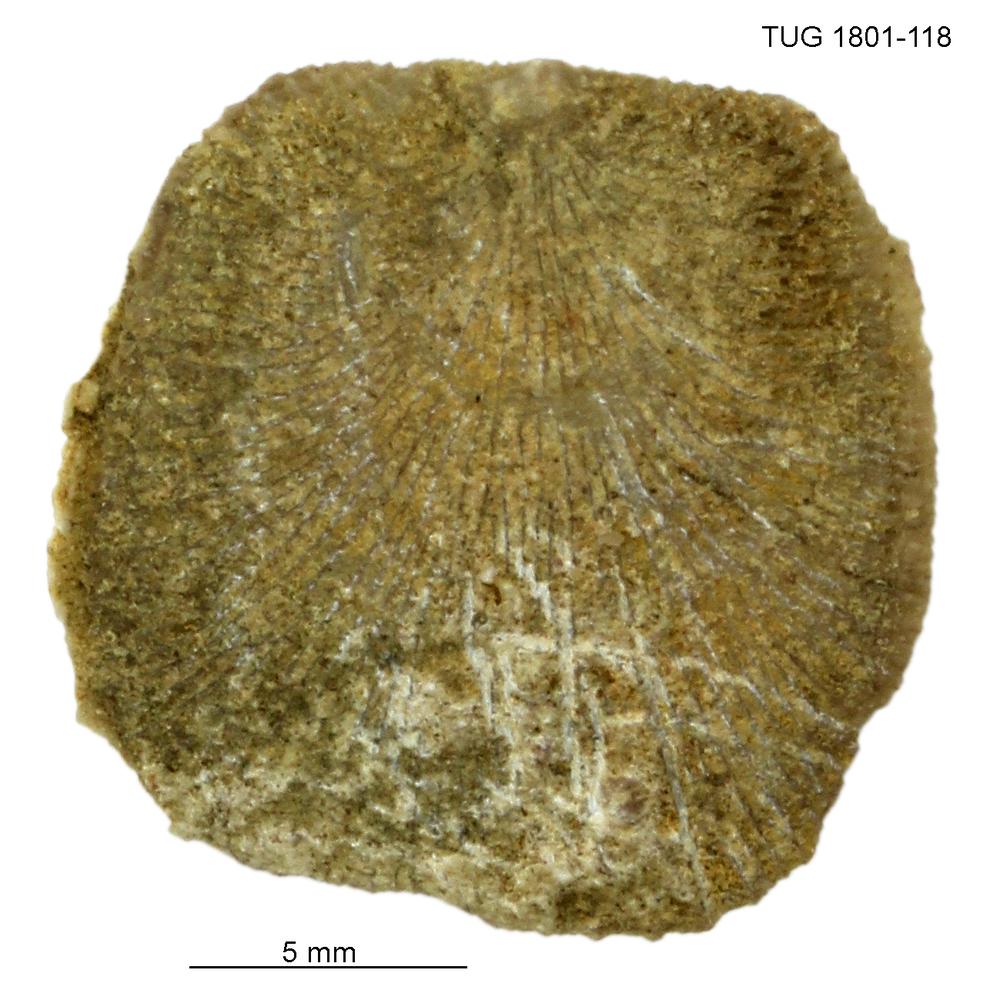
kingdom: Animalia
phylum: Brachiopoda
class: Craniata
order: Craniida
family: Craniidae
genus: Philhedra
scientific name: Philhedra
